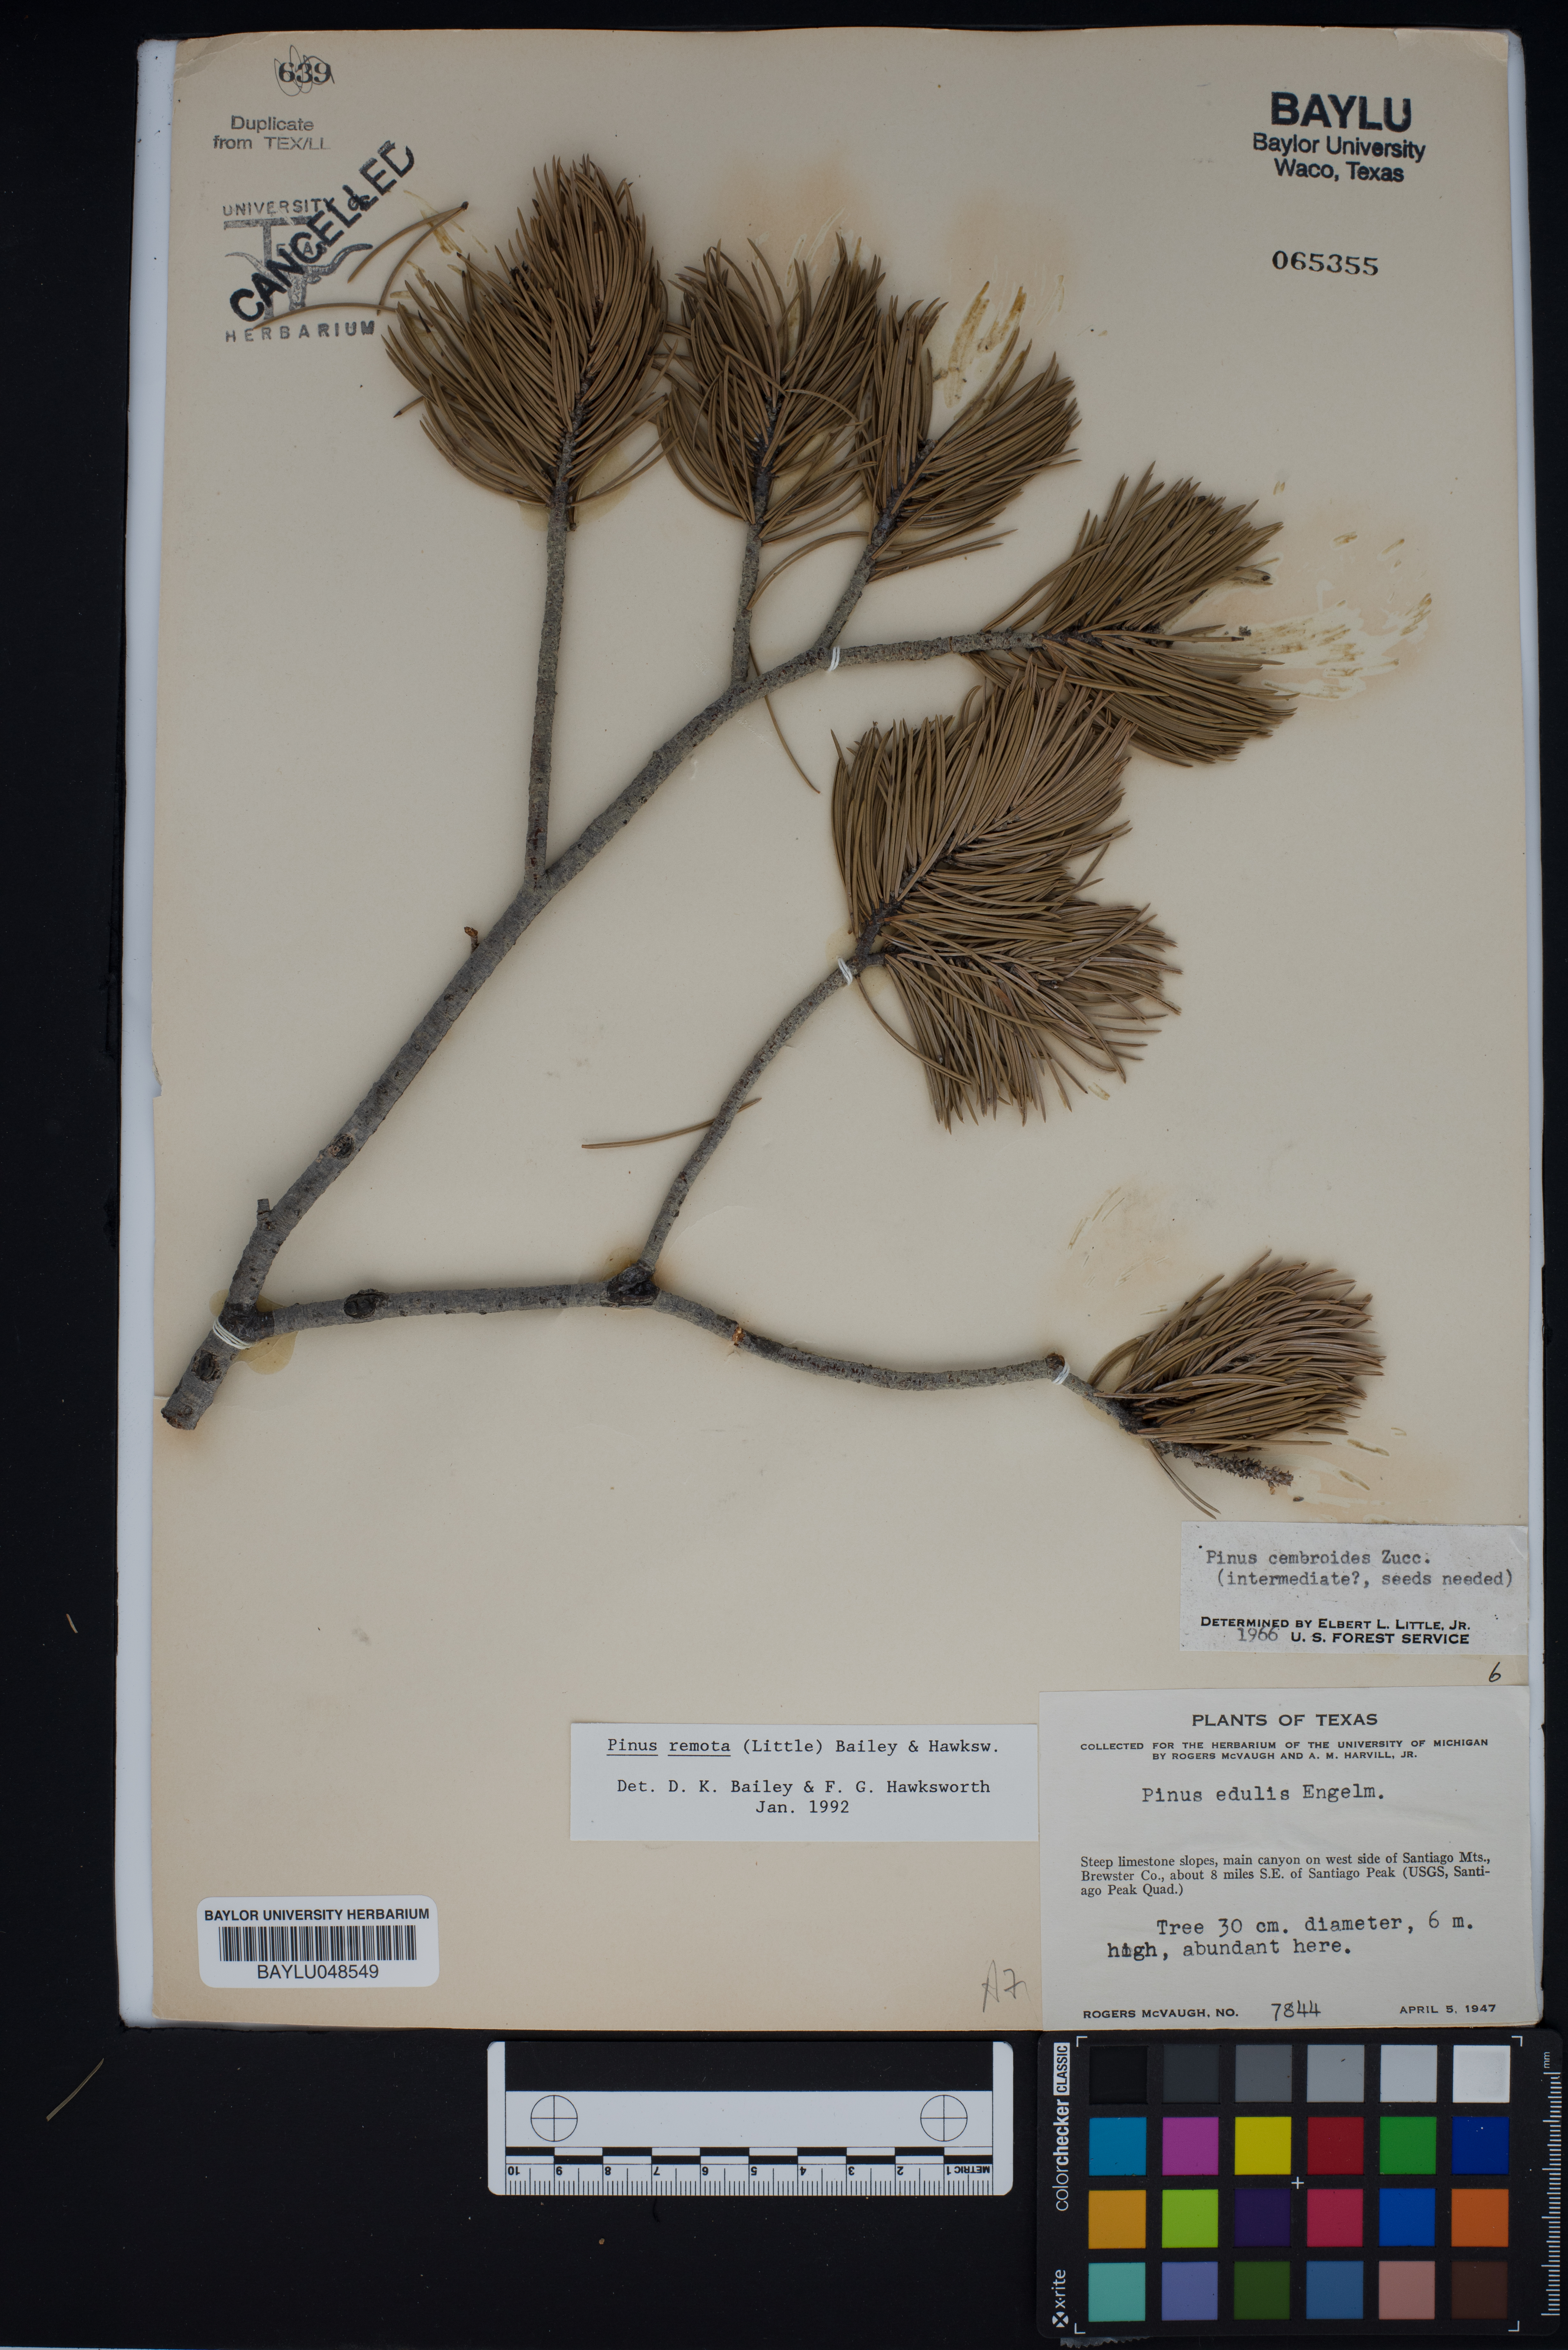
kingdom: Plantae
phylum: Tracheophyta
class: Pinopsida
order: Pinales
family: Pinaceae
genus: Pinus
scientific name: Pinus remota
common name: Nut pine
